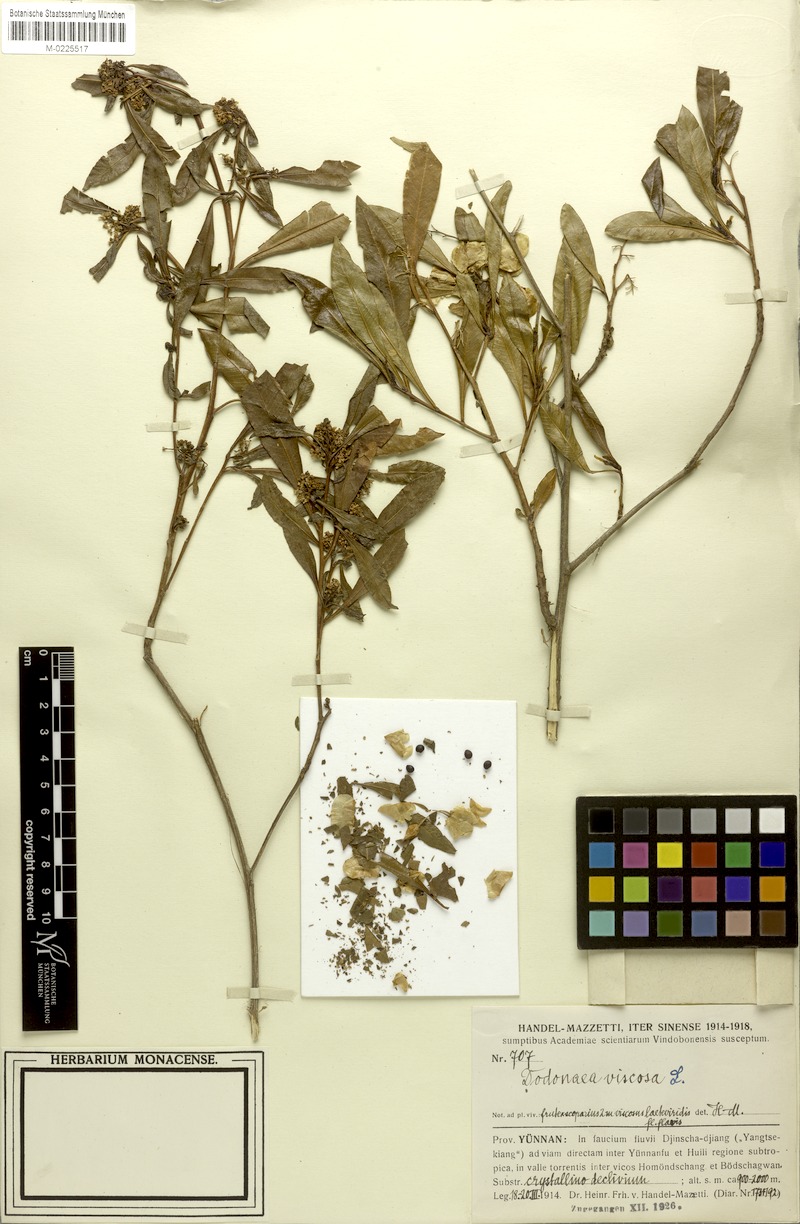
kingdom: Plantae
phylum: Tracheophyta
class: Magnoliopsida
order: Sapindales
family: Sapindaceae
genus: Dodonaea
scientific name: Dodonaea viscosa
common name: Hopbush
